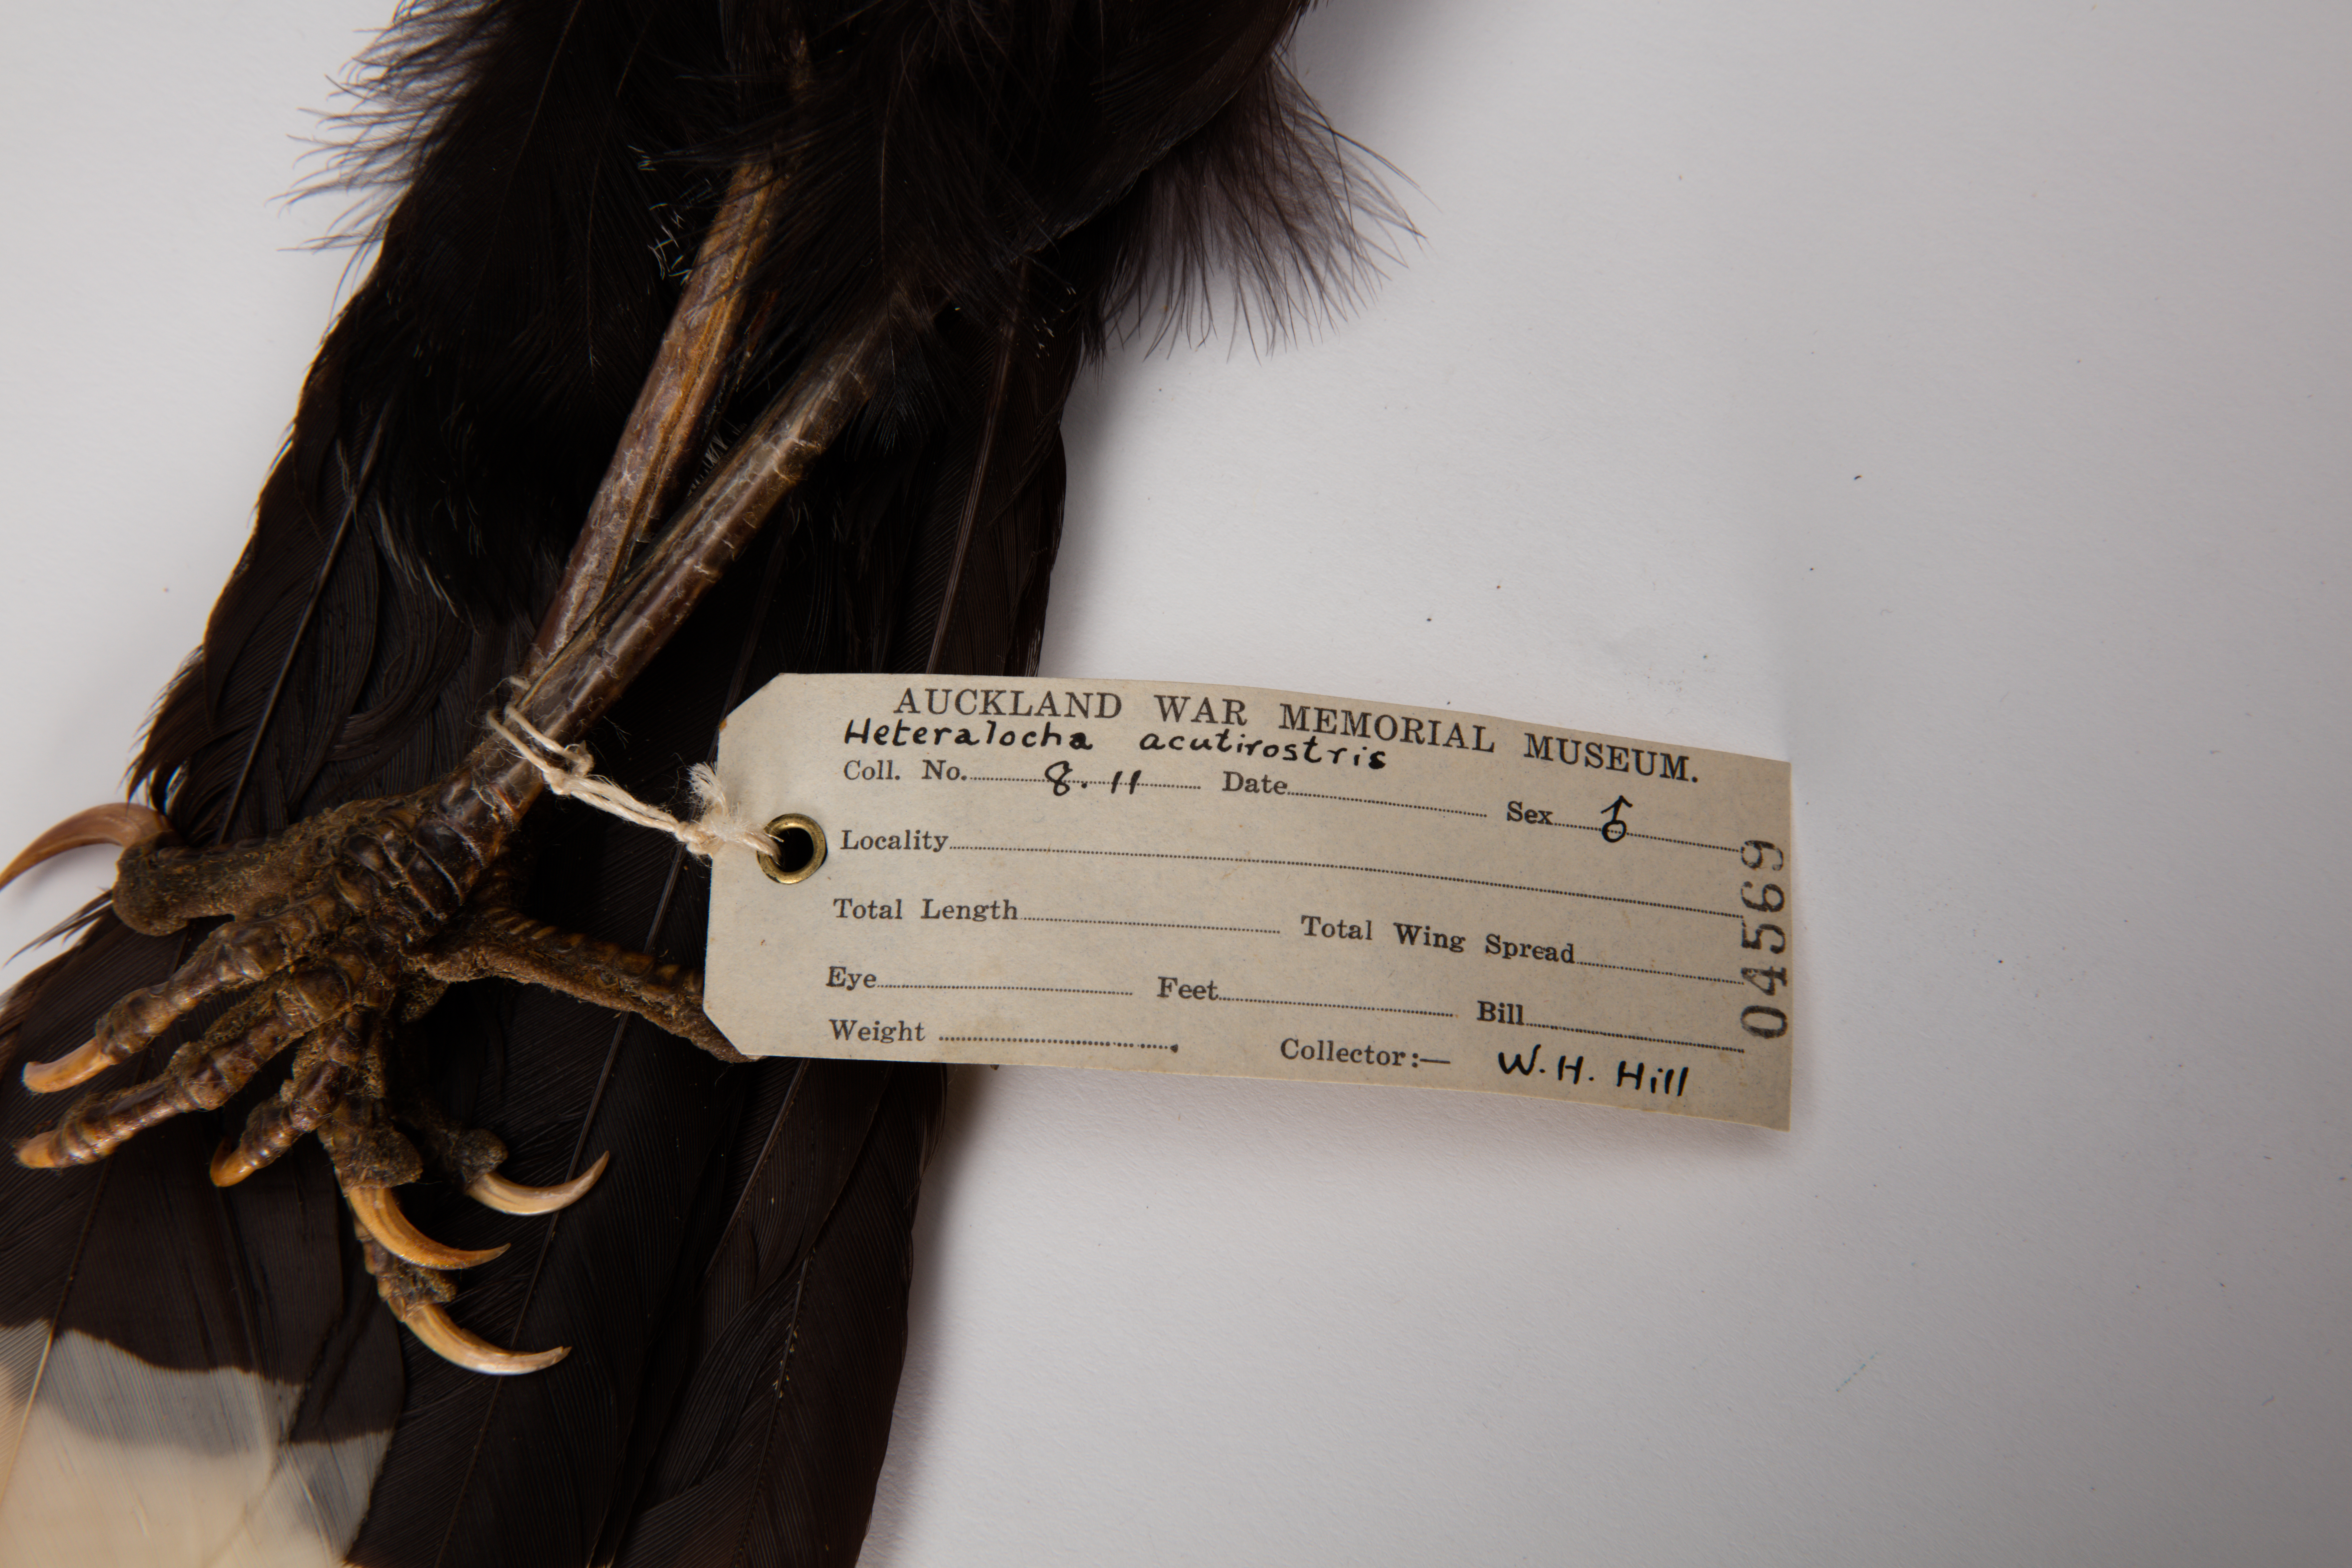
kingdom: Animalia
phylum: Chordata
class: Aves
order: Passeriformes
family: Callaeatidae
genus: Heteralocha
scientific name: Heteralocha acutirostris
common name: Huia
